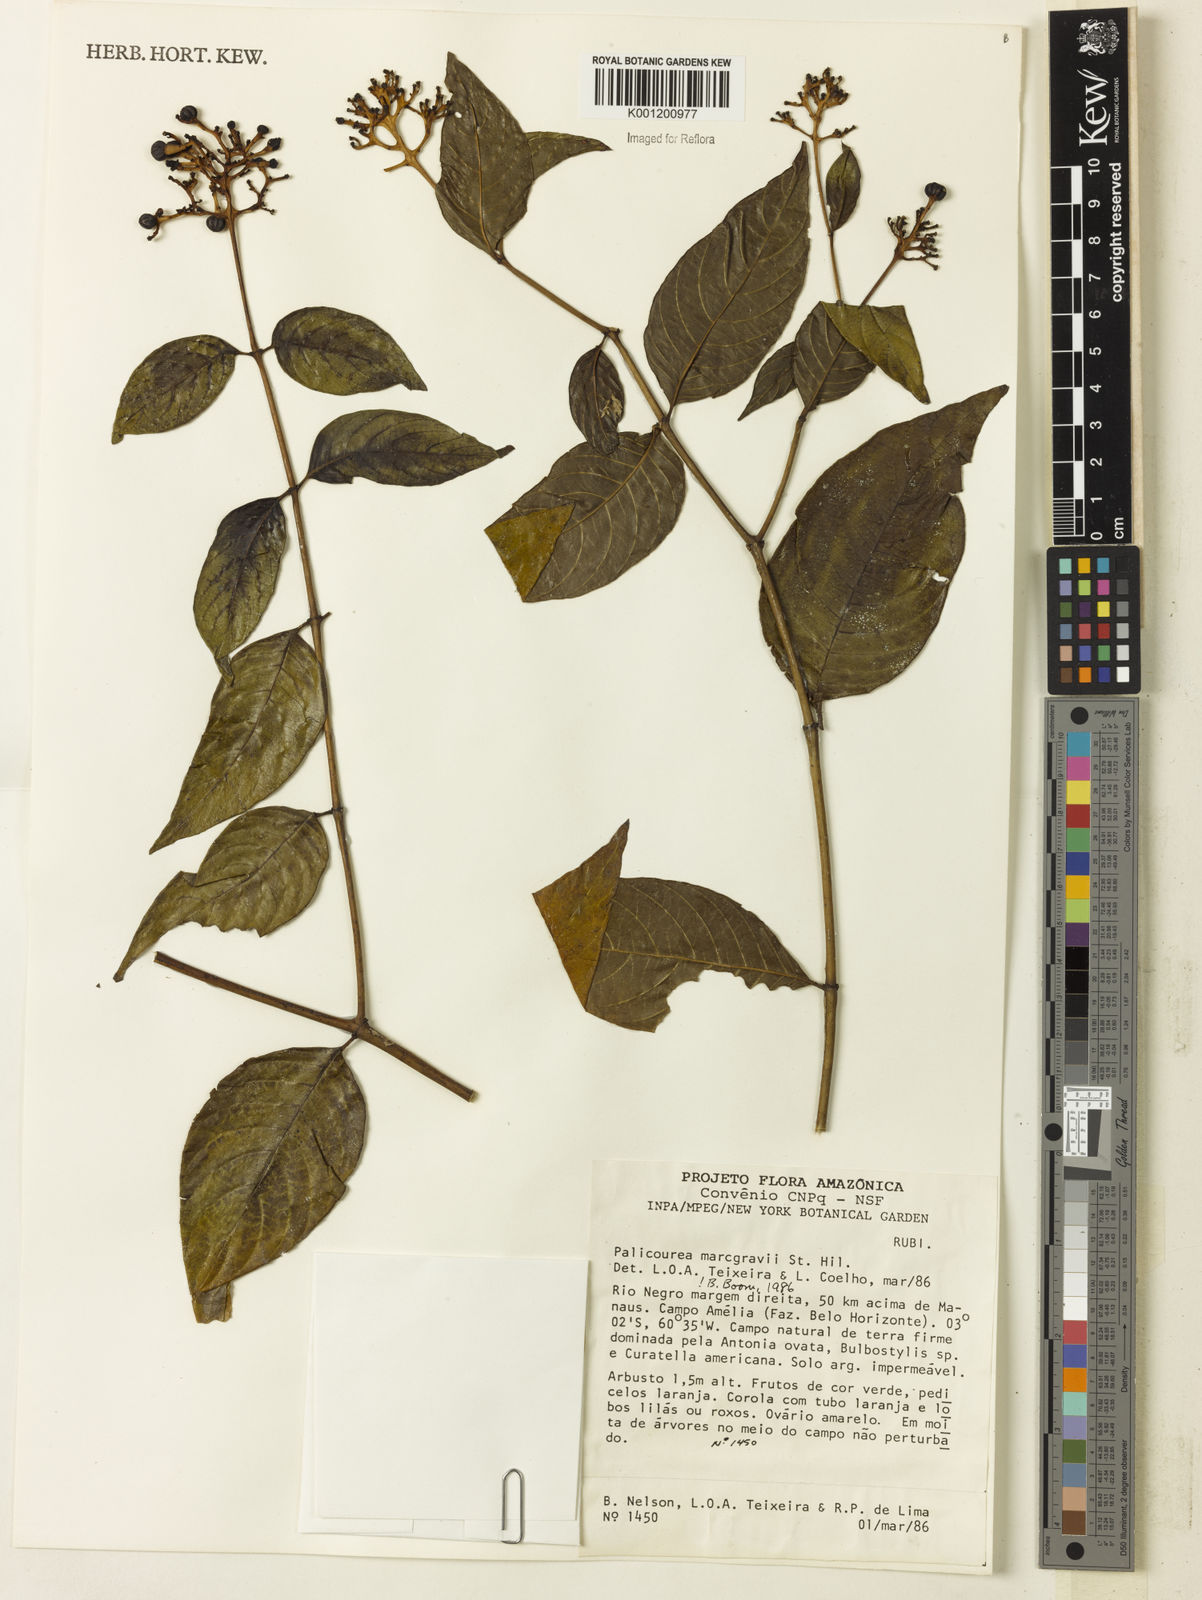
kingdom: Plantae
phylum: Tracheophyta
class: Magnoliopsida
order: Gentianales
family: Rubiaceae
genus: Palicourea
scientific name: Palicourea marcgravii
